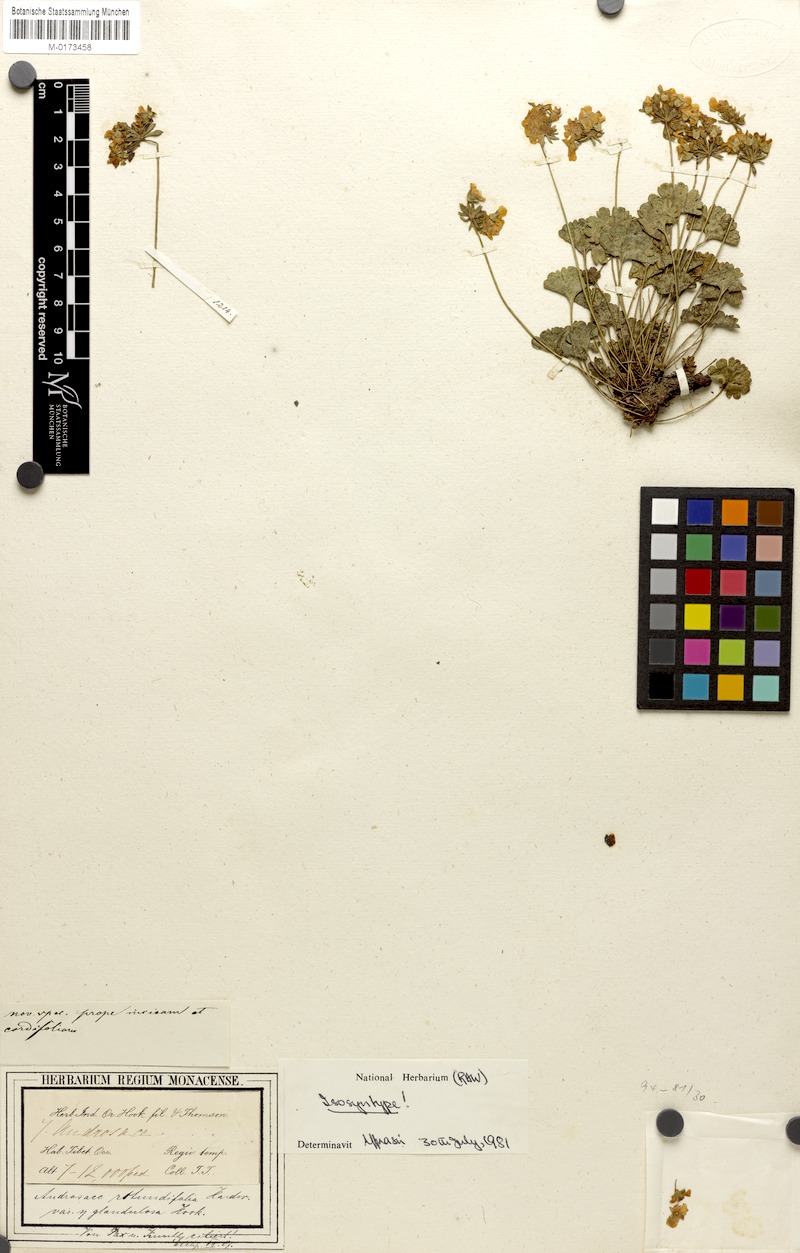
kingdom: Plantae
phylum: Tracheophyta
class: Magnoliopsida
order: Ericales
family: Primulaceae
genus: Androsace
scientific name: Androsace rotundifolia
